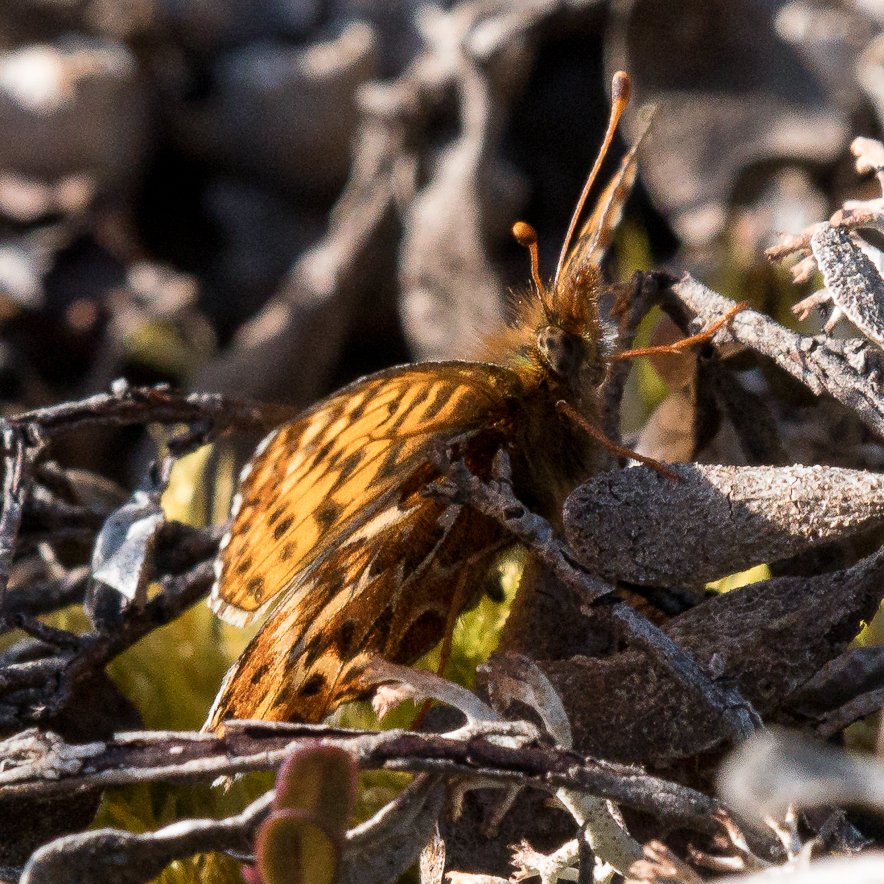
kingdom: Animalia
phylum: Arthropoda
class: Insecta
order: Lepidoptera
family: Nymphalidae
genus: Boloria
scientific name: Boloria freija
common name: Freija Fritillary
